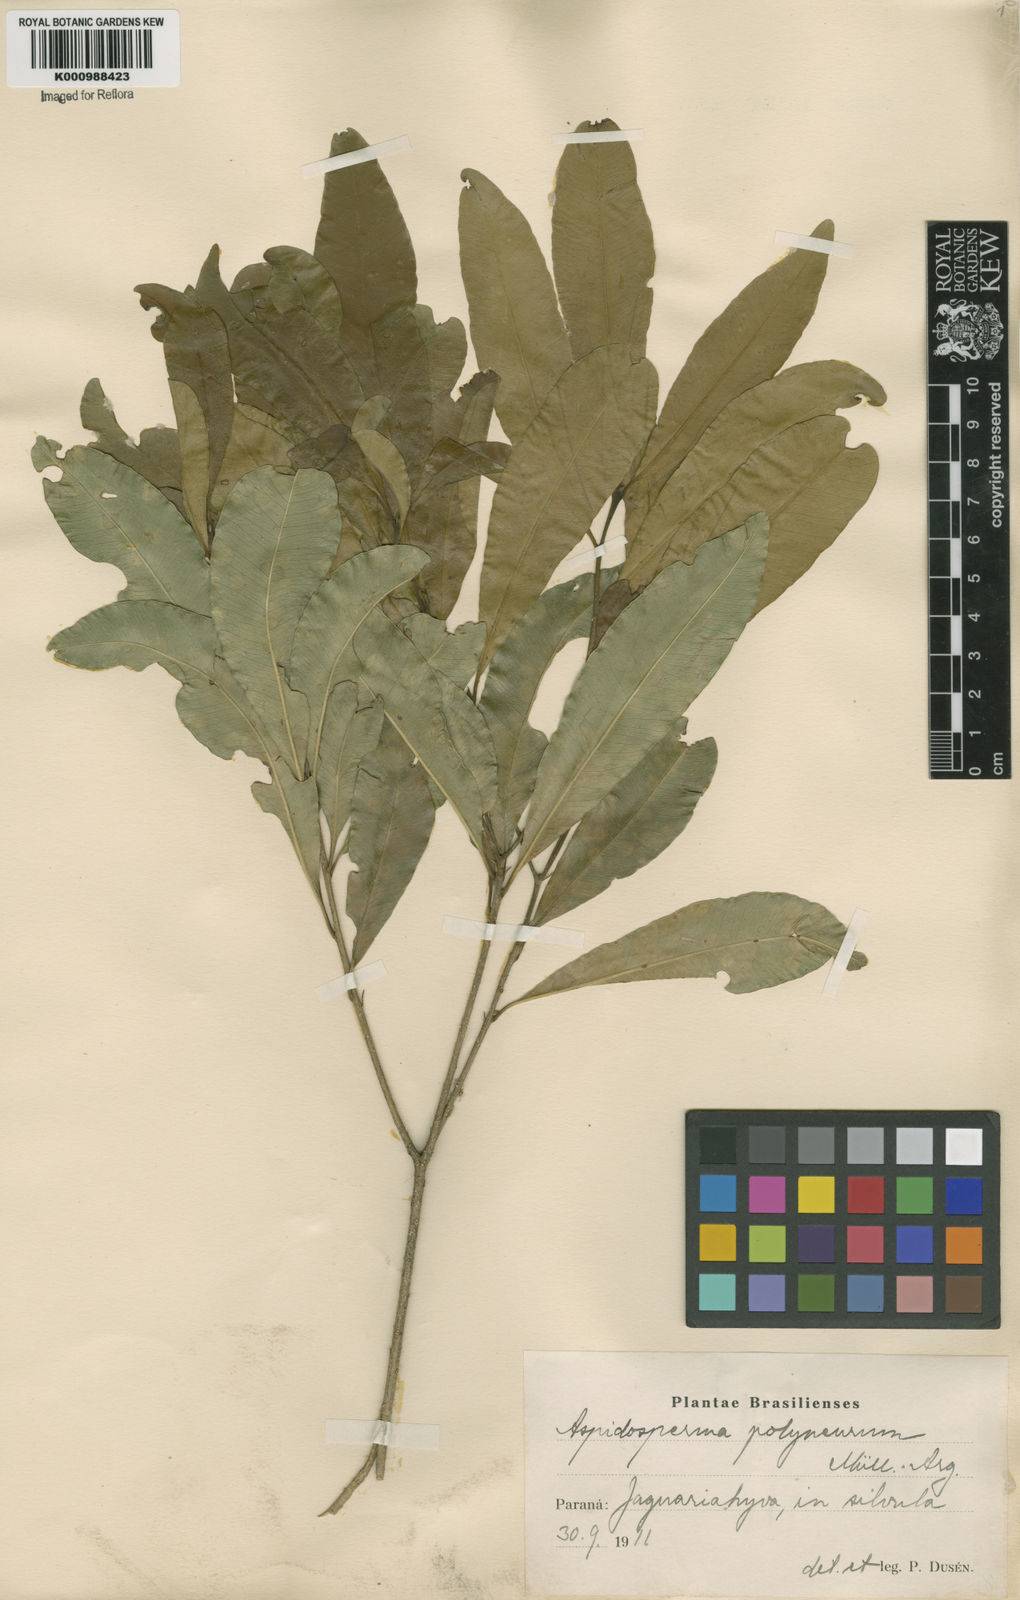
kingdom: Plantae
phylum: Tracheophyta
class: Magnoliopsida
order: Gentianales
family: Apocynaceae
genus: Aspidosperma
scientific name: Aspidosperma
